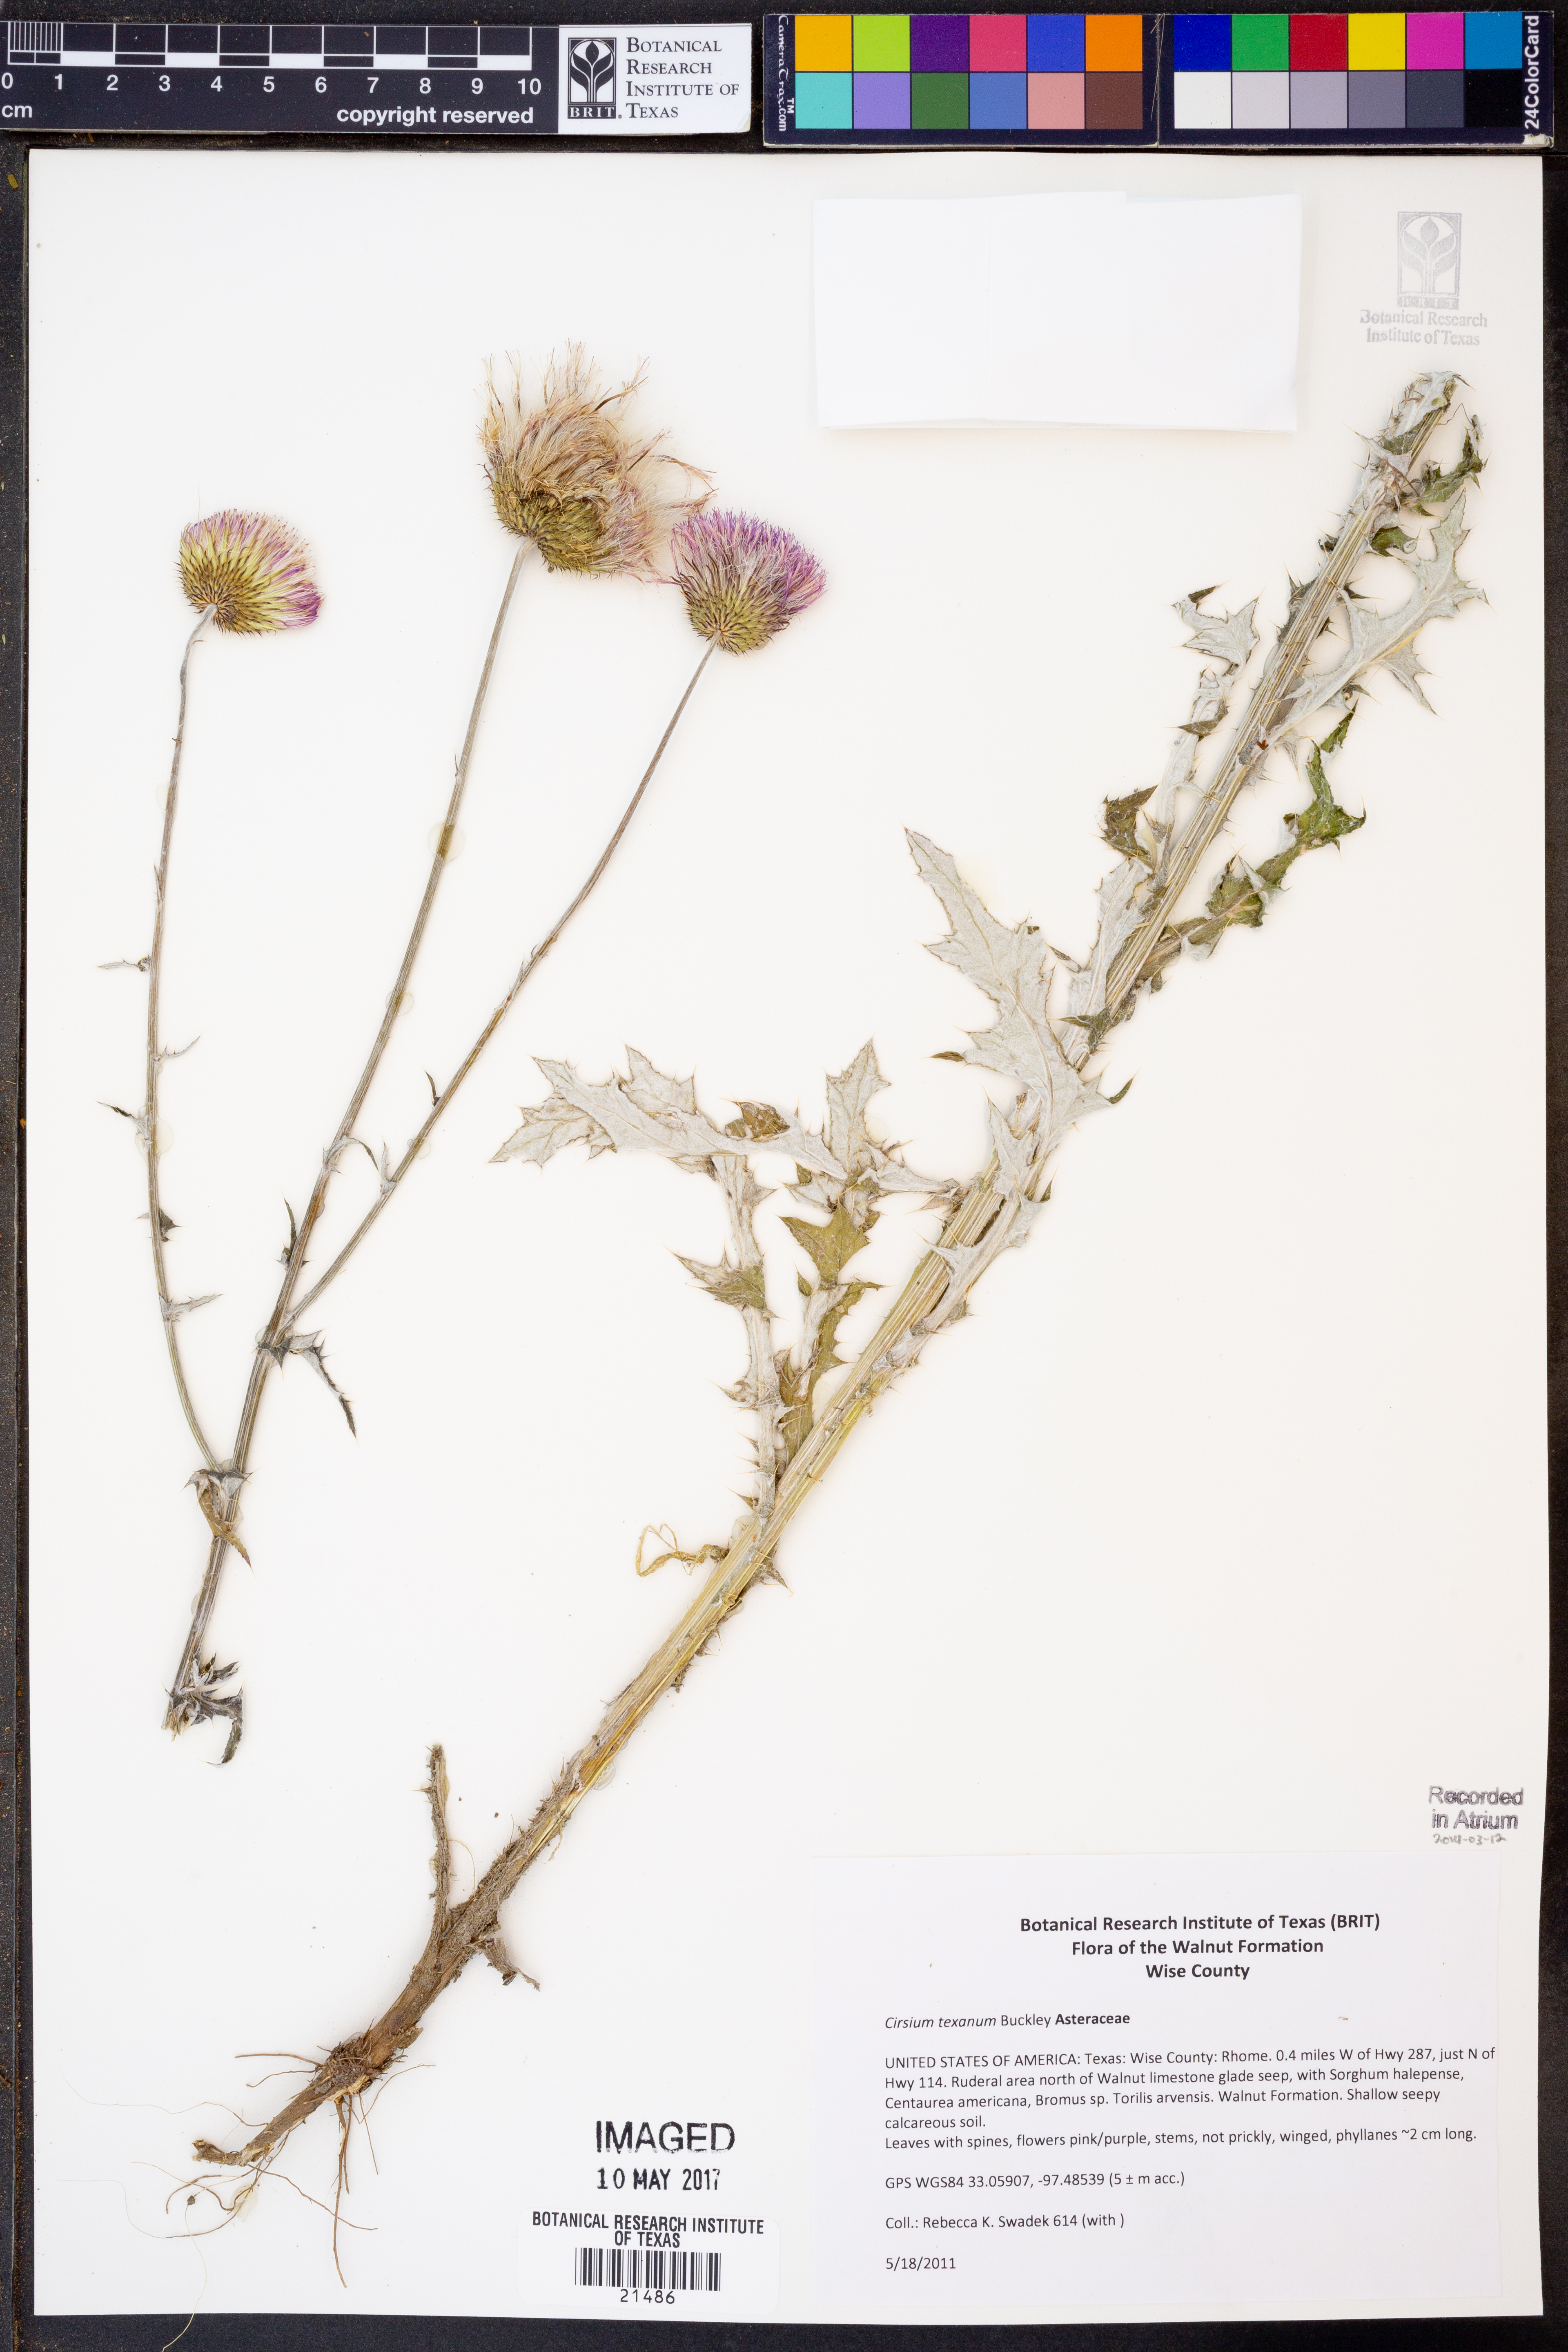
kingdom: Plantae
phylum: Tracheophyta
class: Magnoliopsida
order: Asterales
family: Asteraceae
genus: Cirsium
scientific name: Cirsium texanum
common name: Texas purple thistle
